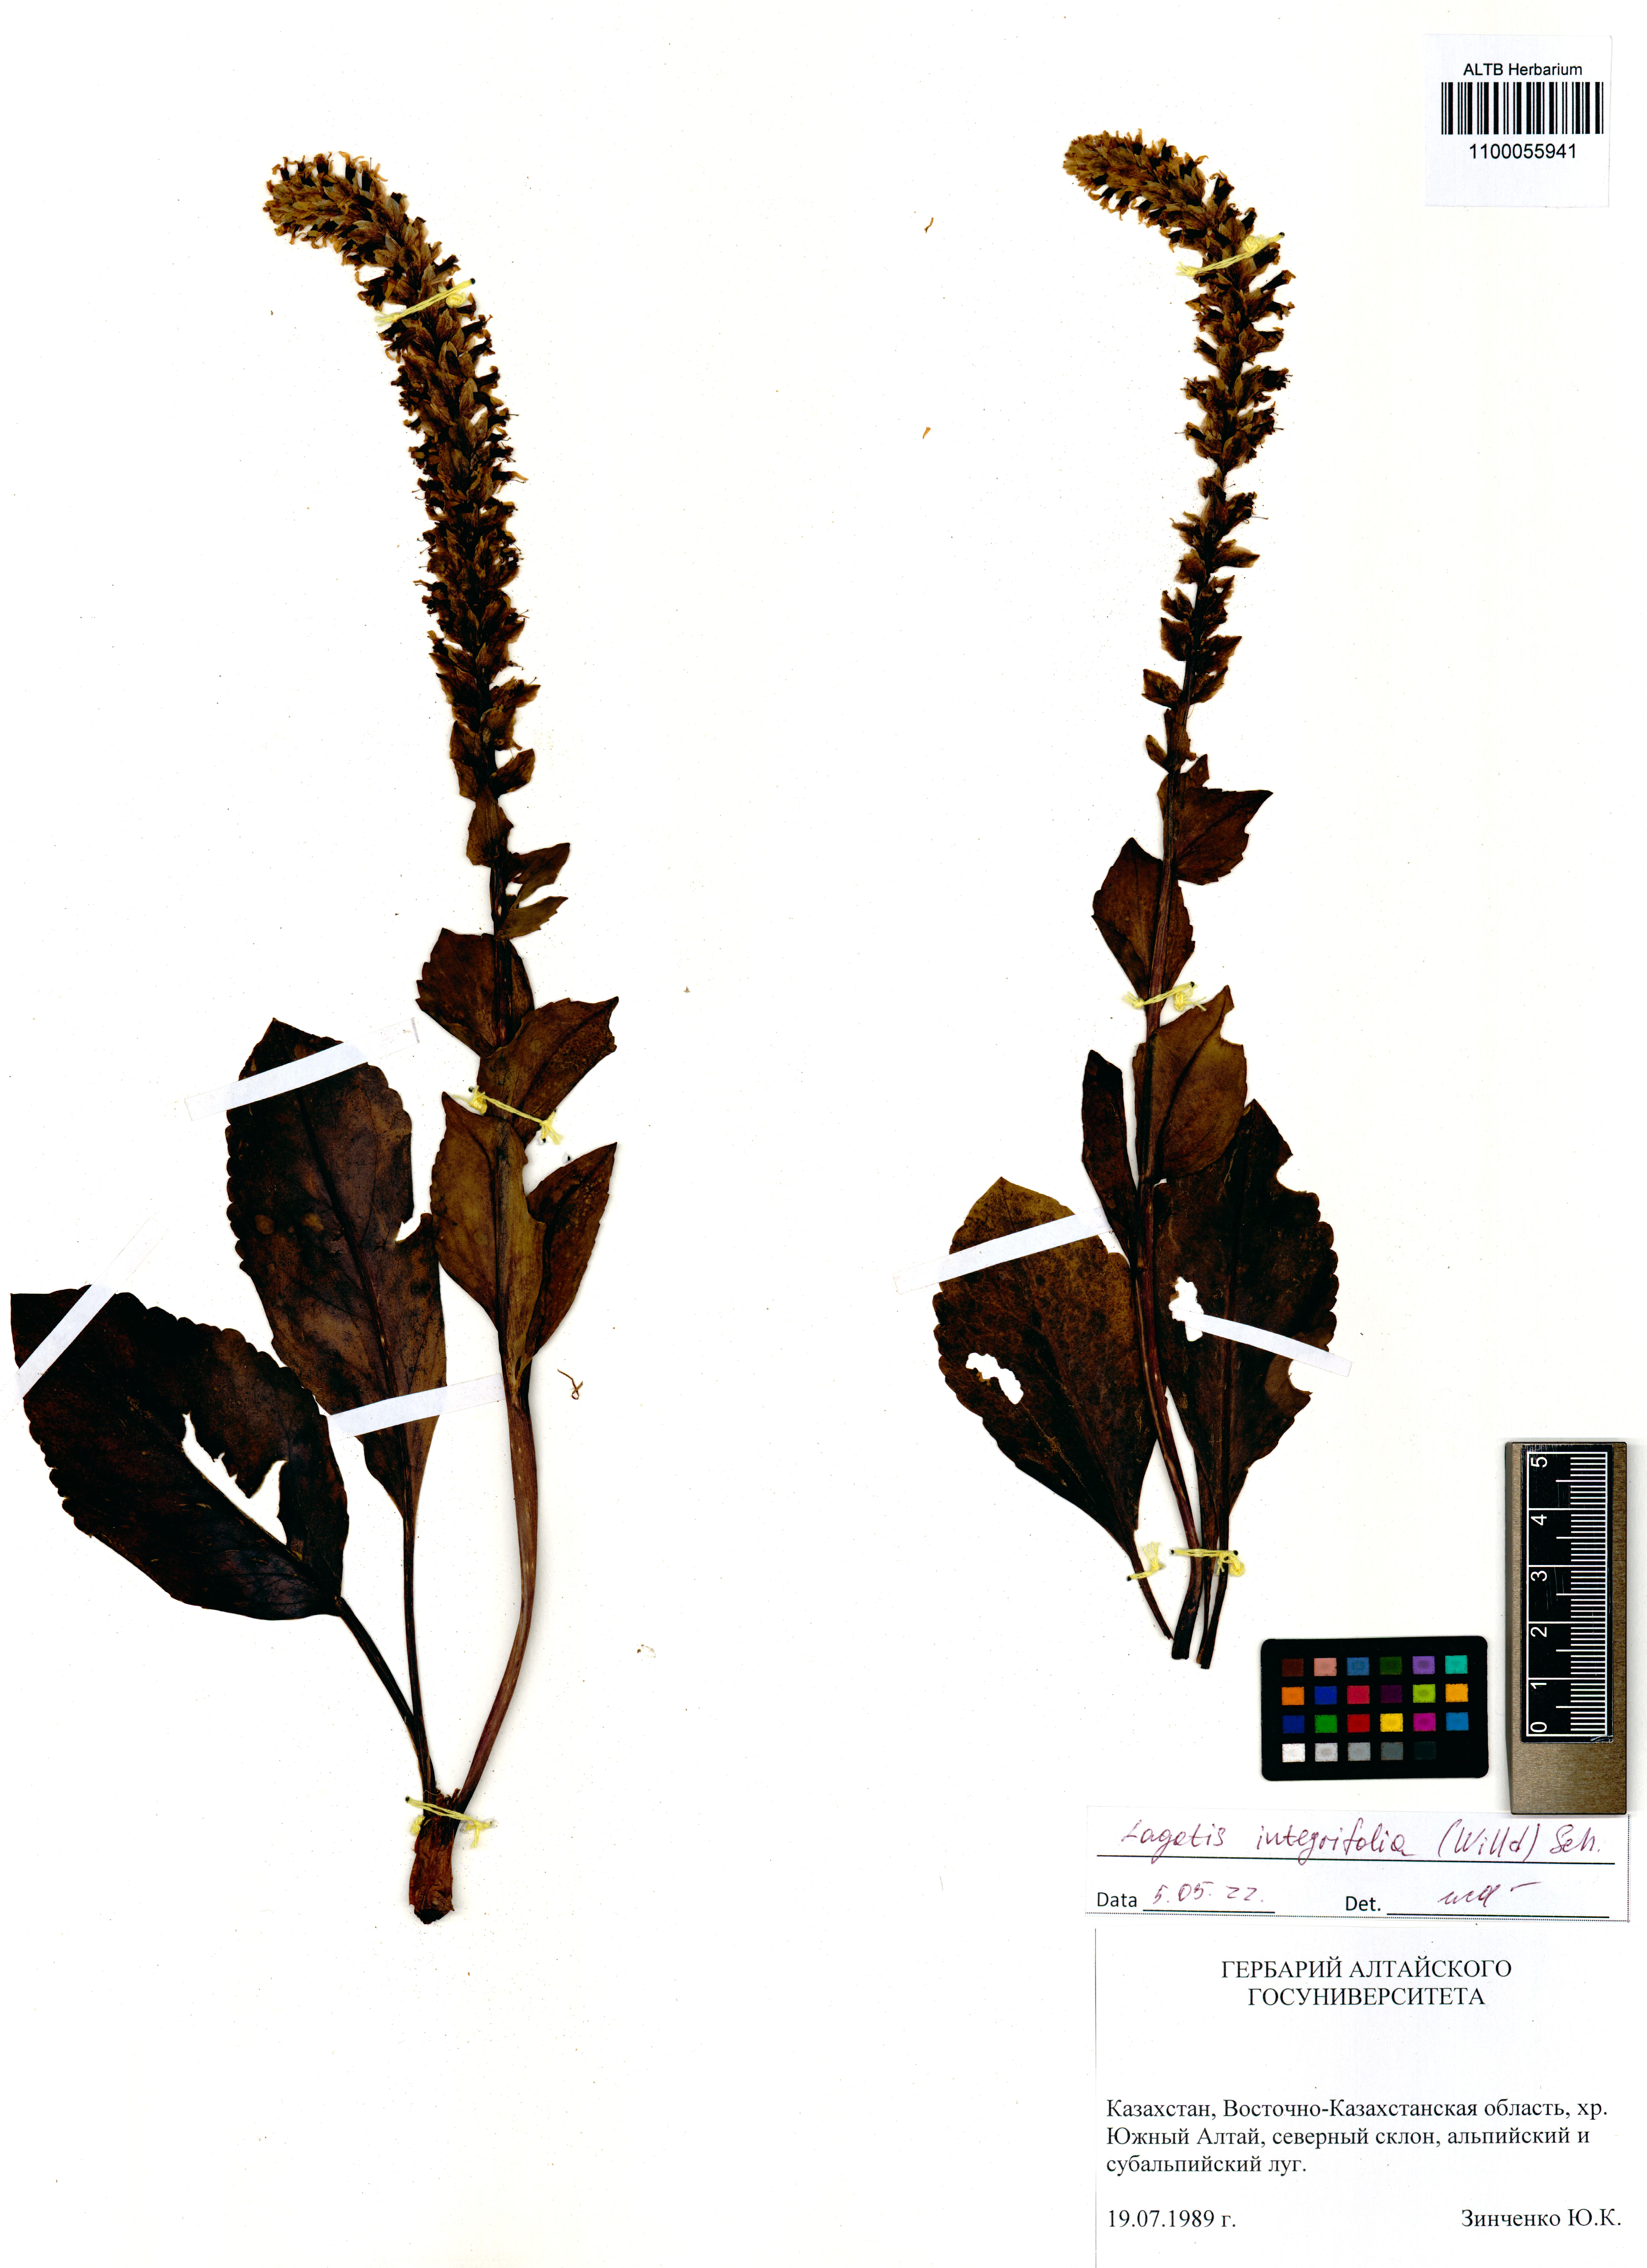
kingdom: Plantae
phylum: Tracheophyta
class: Magnoliopsida
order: Lamiales
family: Plantaginaceae
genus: Lagotis
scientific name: Lagotis integrifolia
